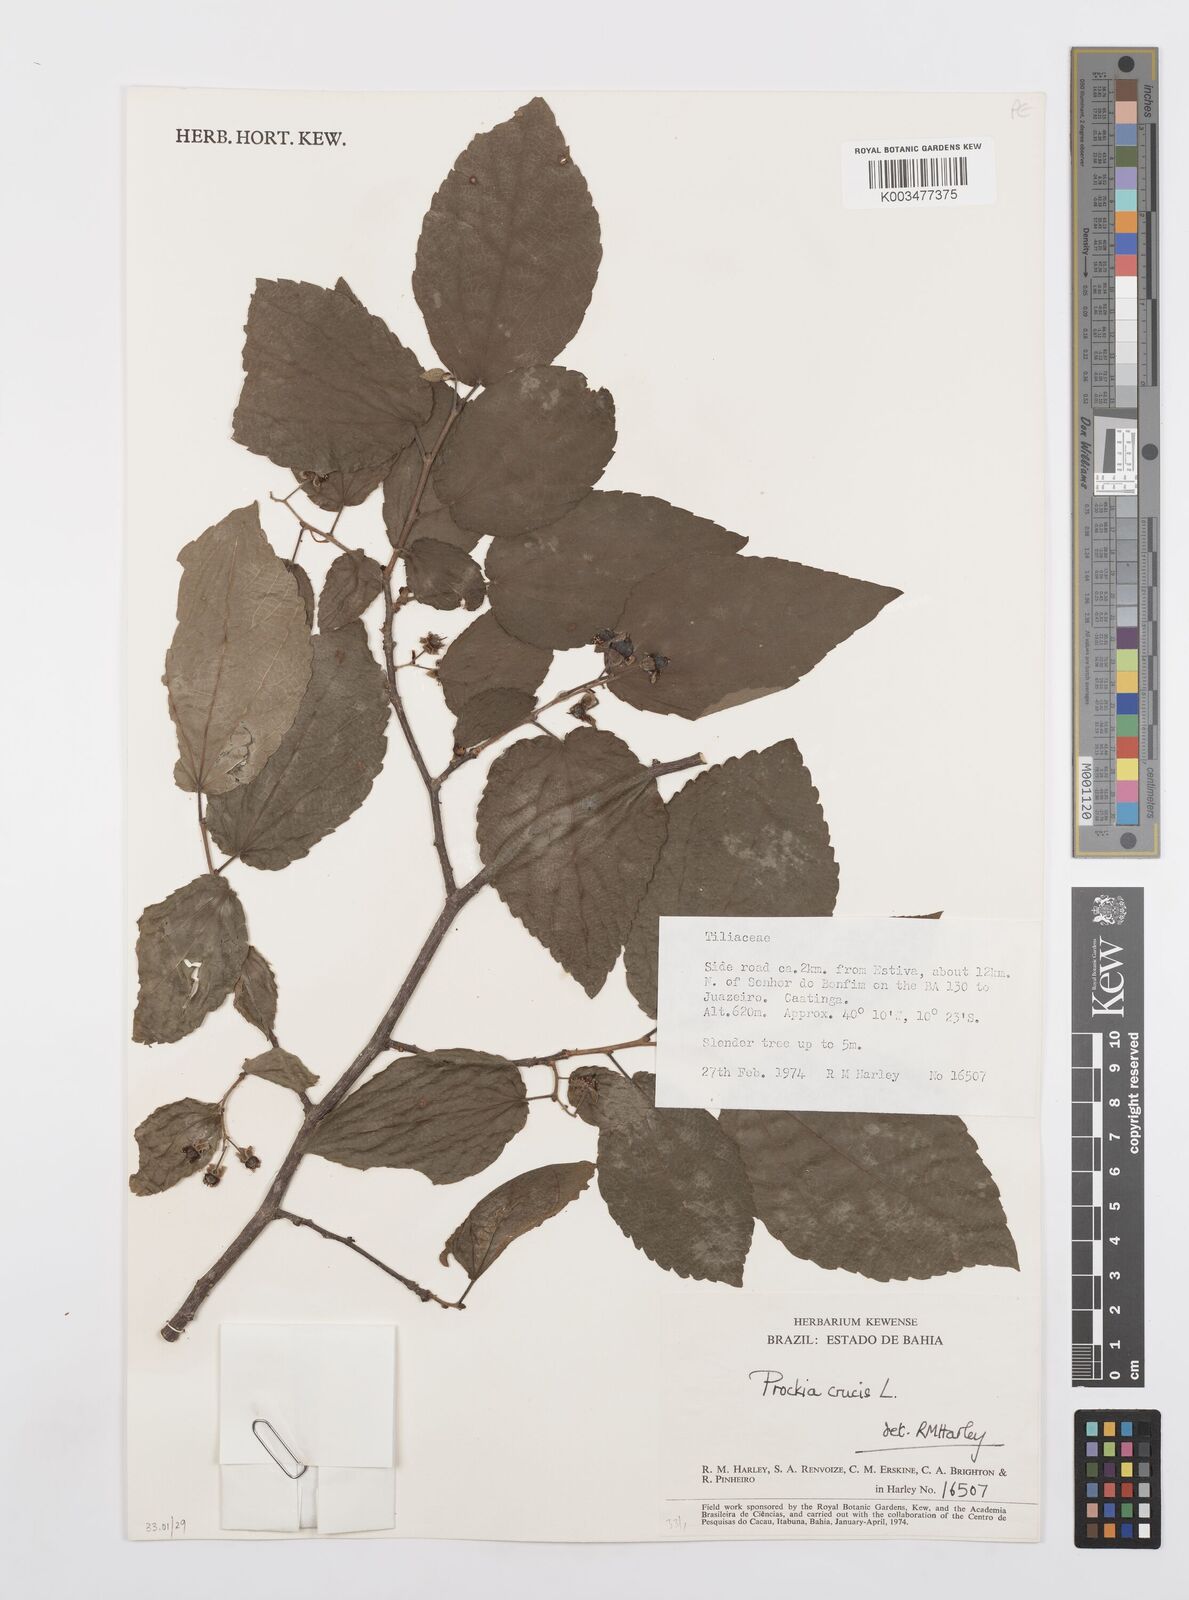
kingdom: Plantae
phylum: Tracheophyta
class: Magnoliopsida
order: Malpighiales
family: Salicaceae
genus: Prockia
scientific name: Prockia crucis
